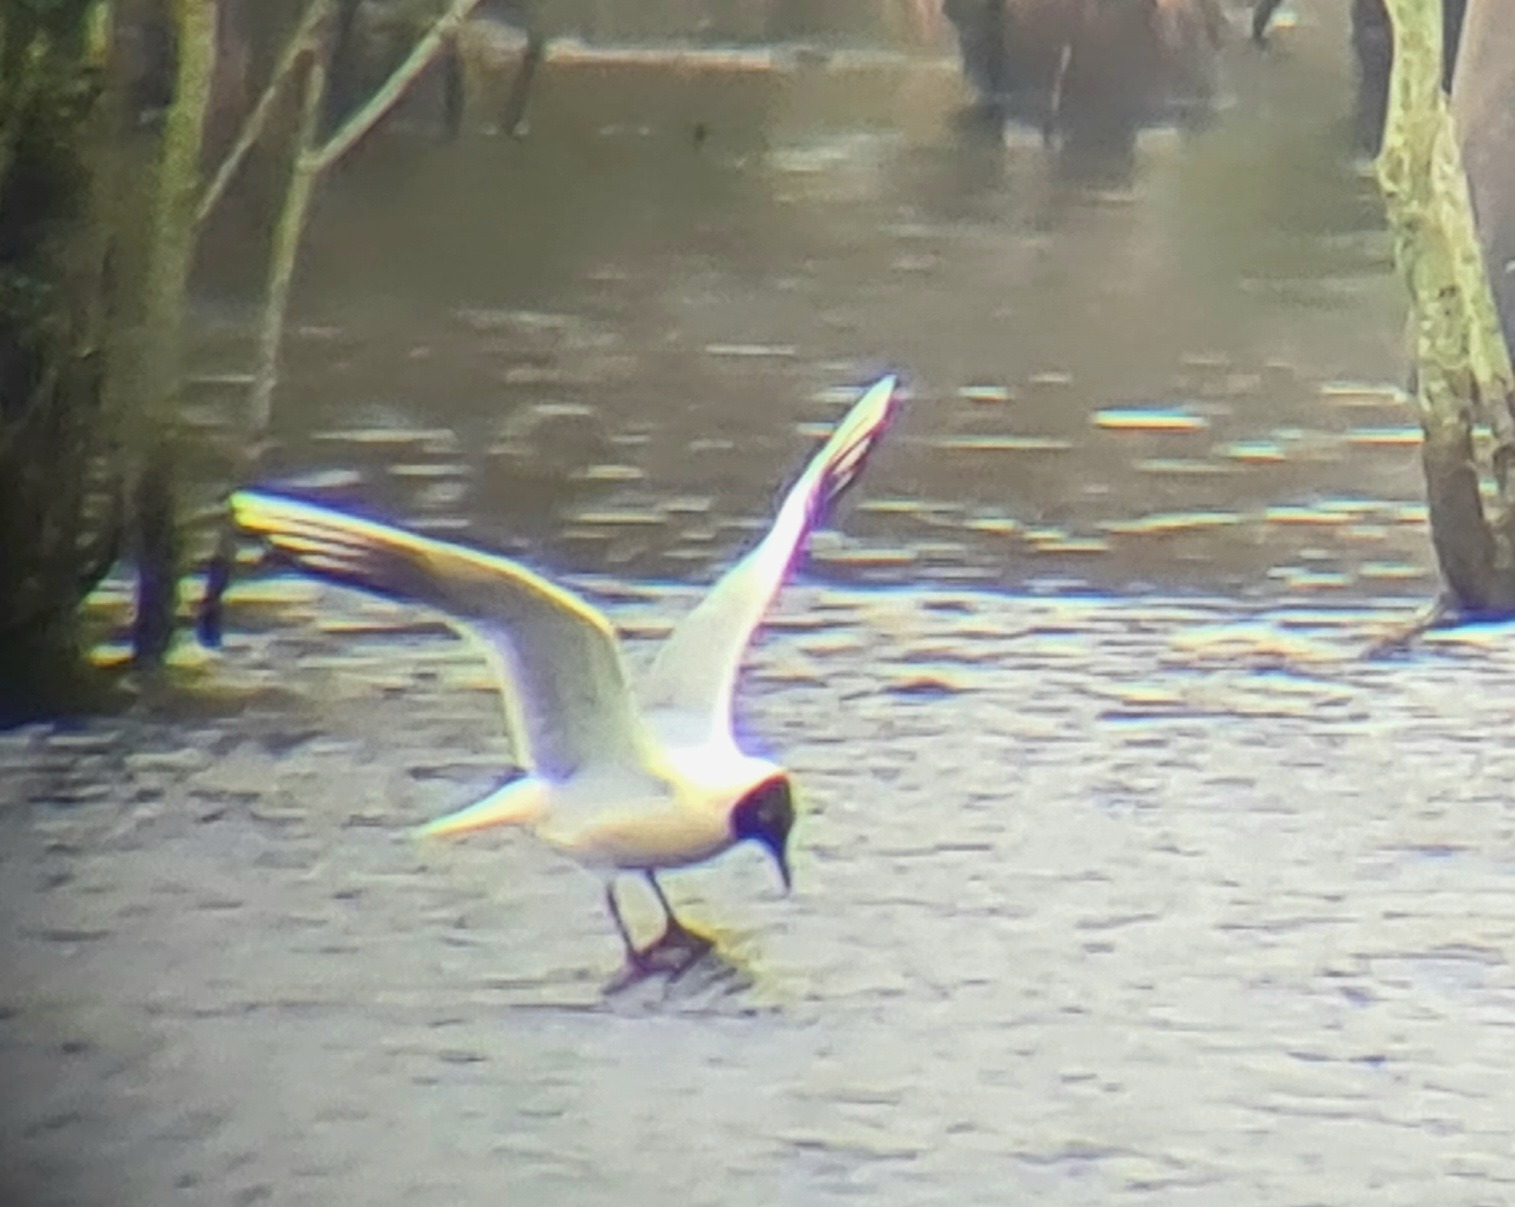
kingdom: Animalia
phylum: Chordata
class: Aves
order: Charadriiformes
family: Laridae
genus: Chroicocephalus
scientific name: Chroicocephalus ridibundus
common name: Hættemåge
